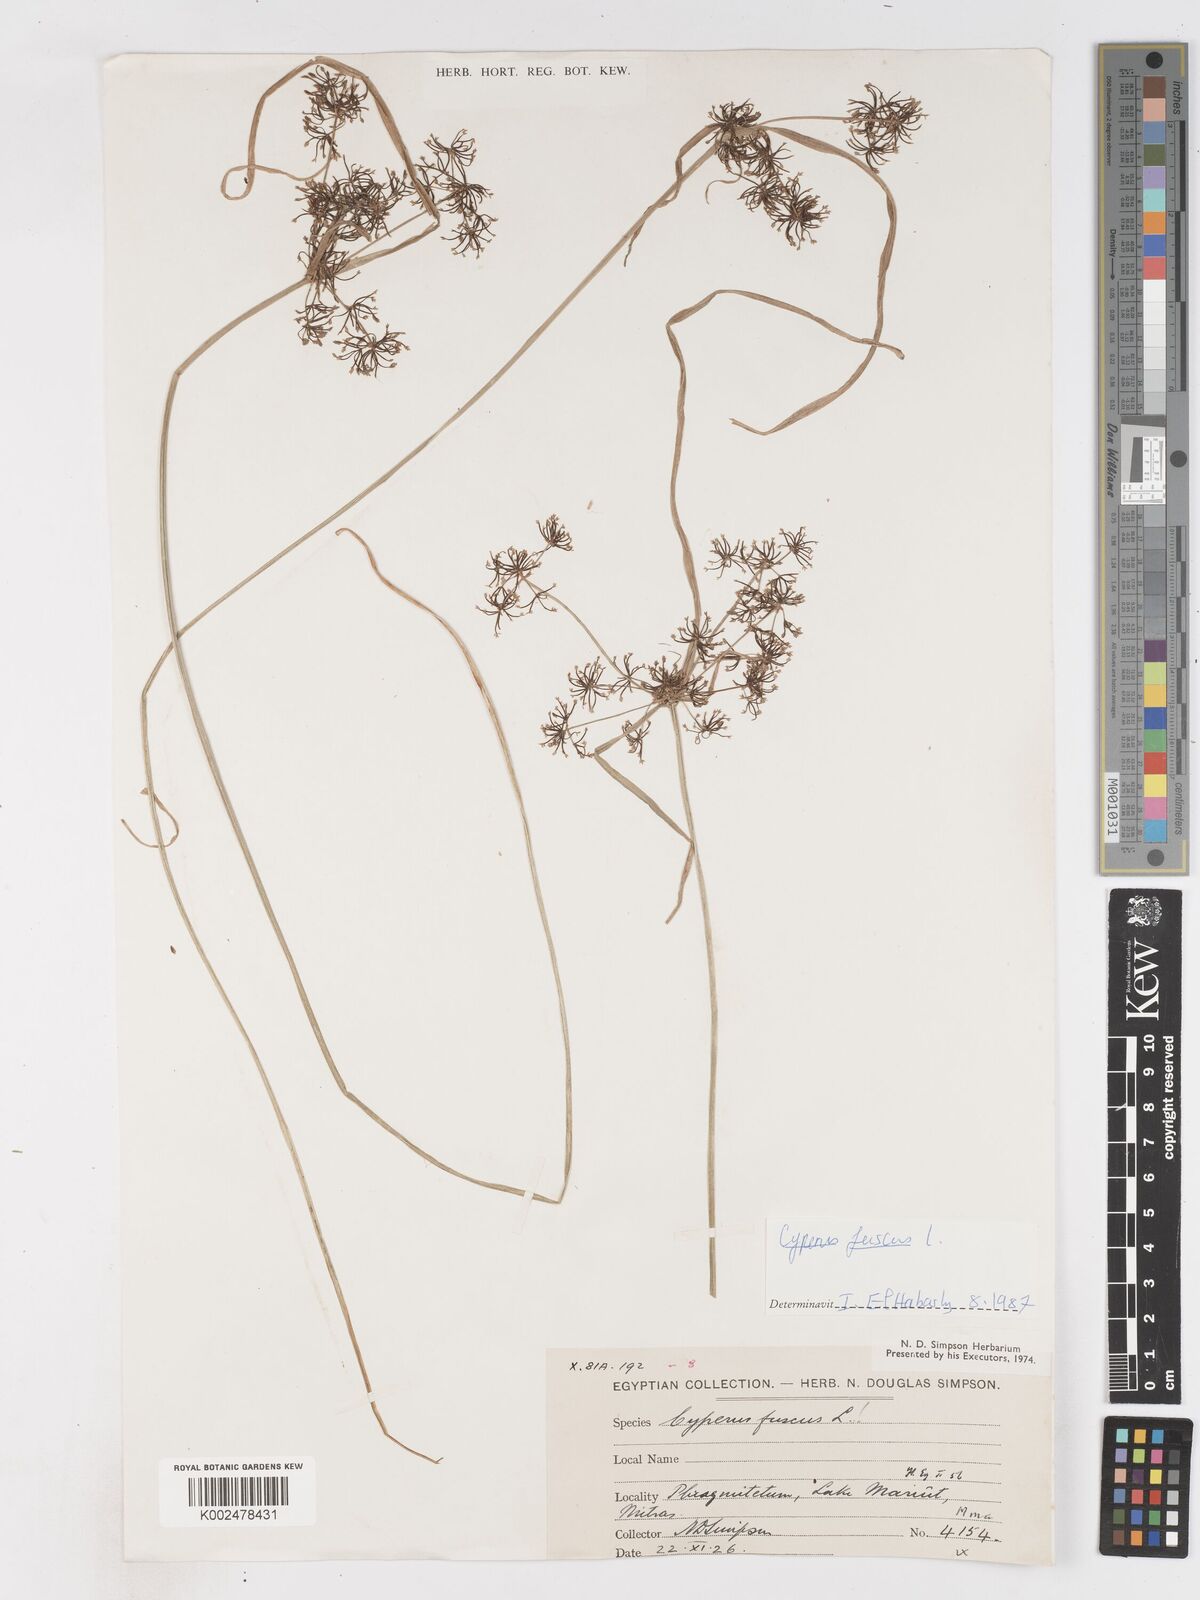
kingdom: Plantae
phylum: Tracheophyta
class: Liliopsida
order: Poales
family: Cyperaceae
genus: Cyperus
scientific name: Cyperus fuscus
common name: Brown galingale
